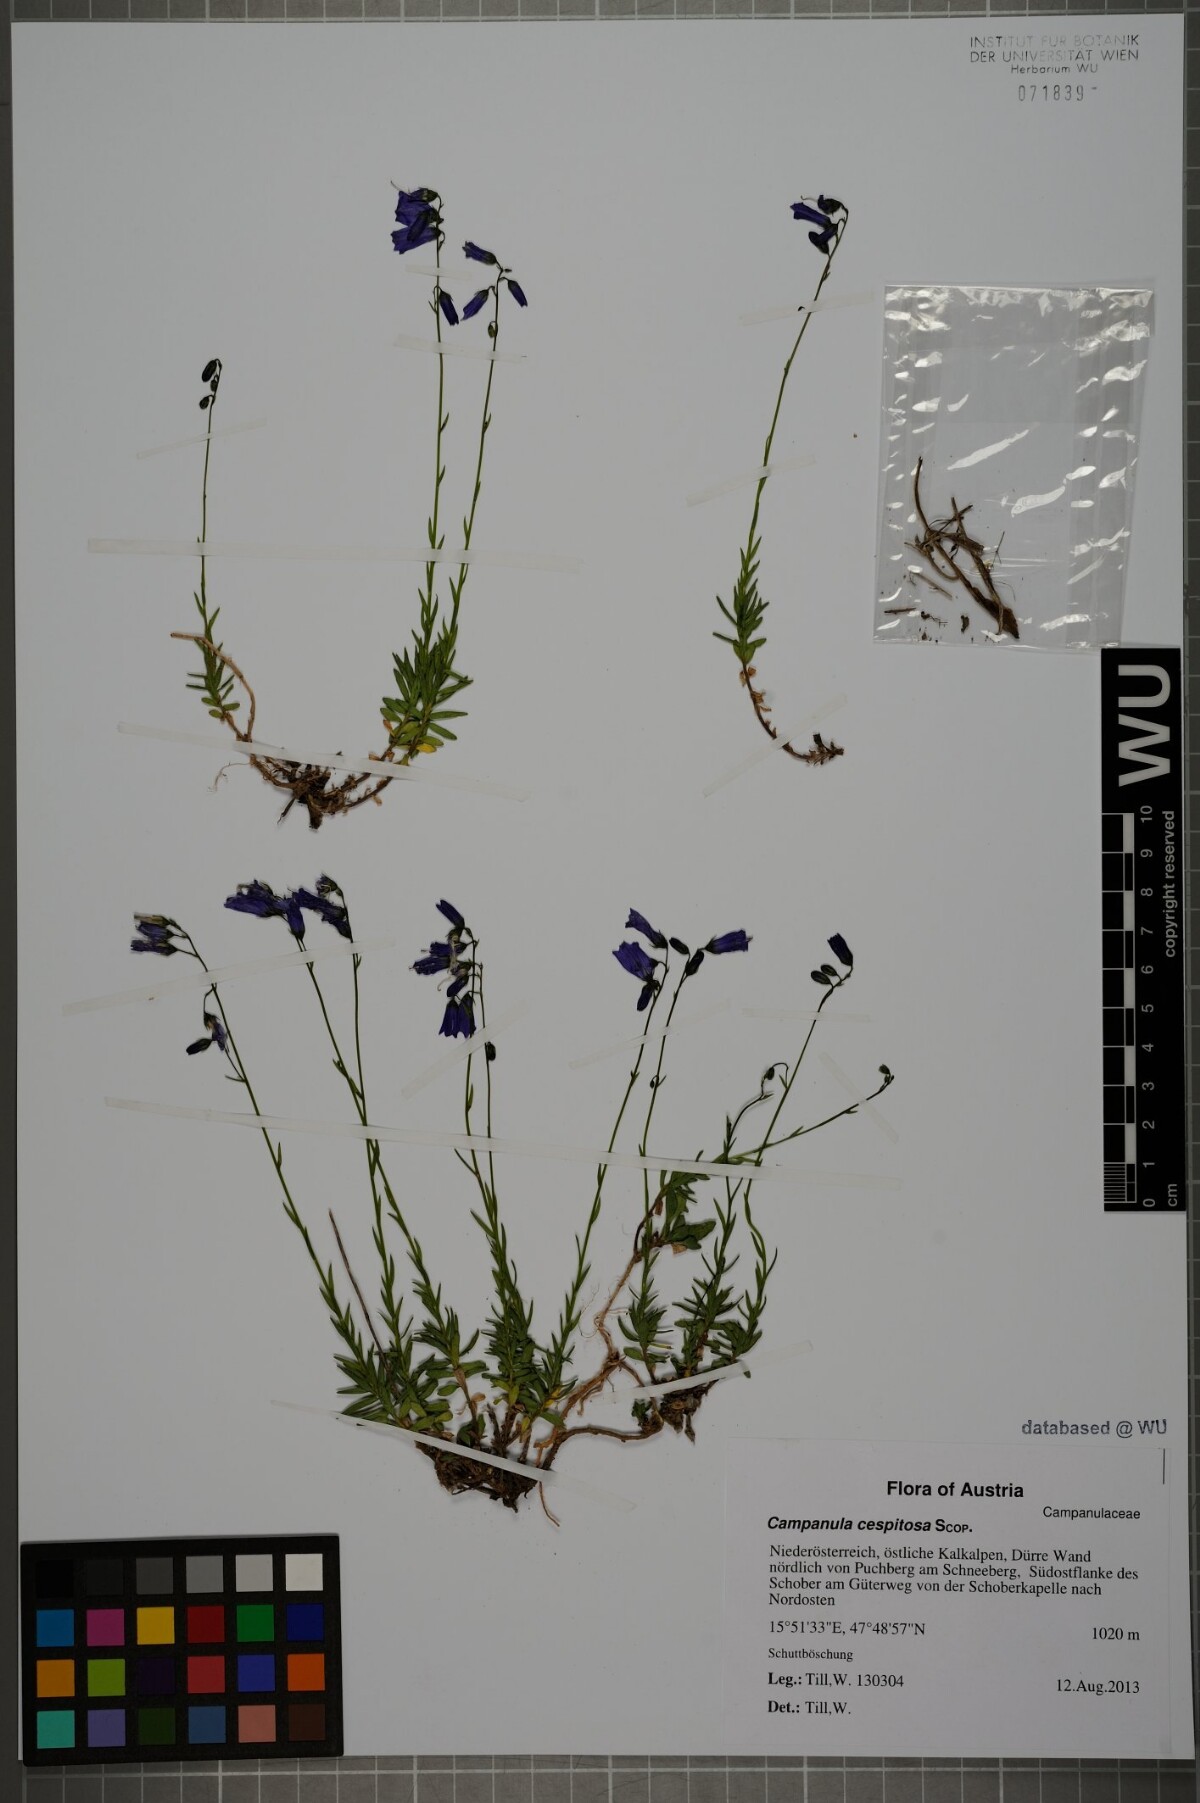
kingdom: Plantae
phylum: Tracheophyta
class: Magnoliopsida
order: Asterales
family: Campanulaceae
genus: Campanula
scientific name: Campanula cespitosa
